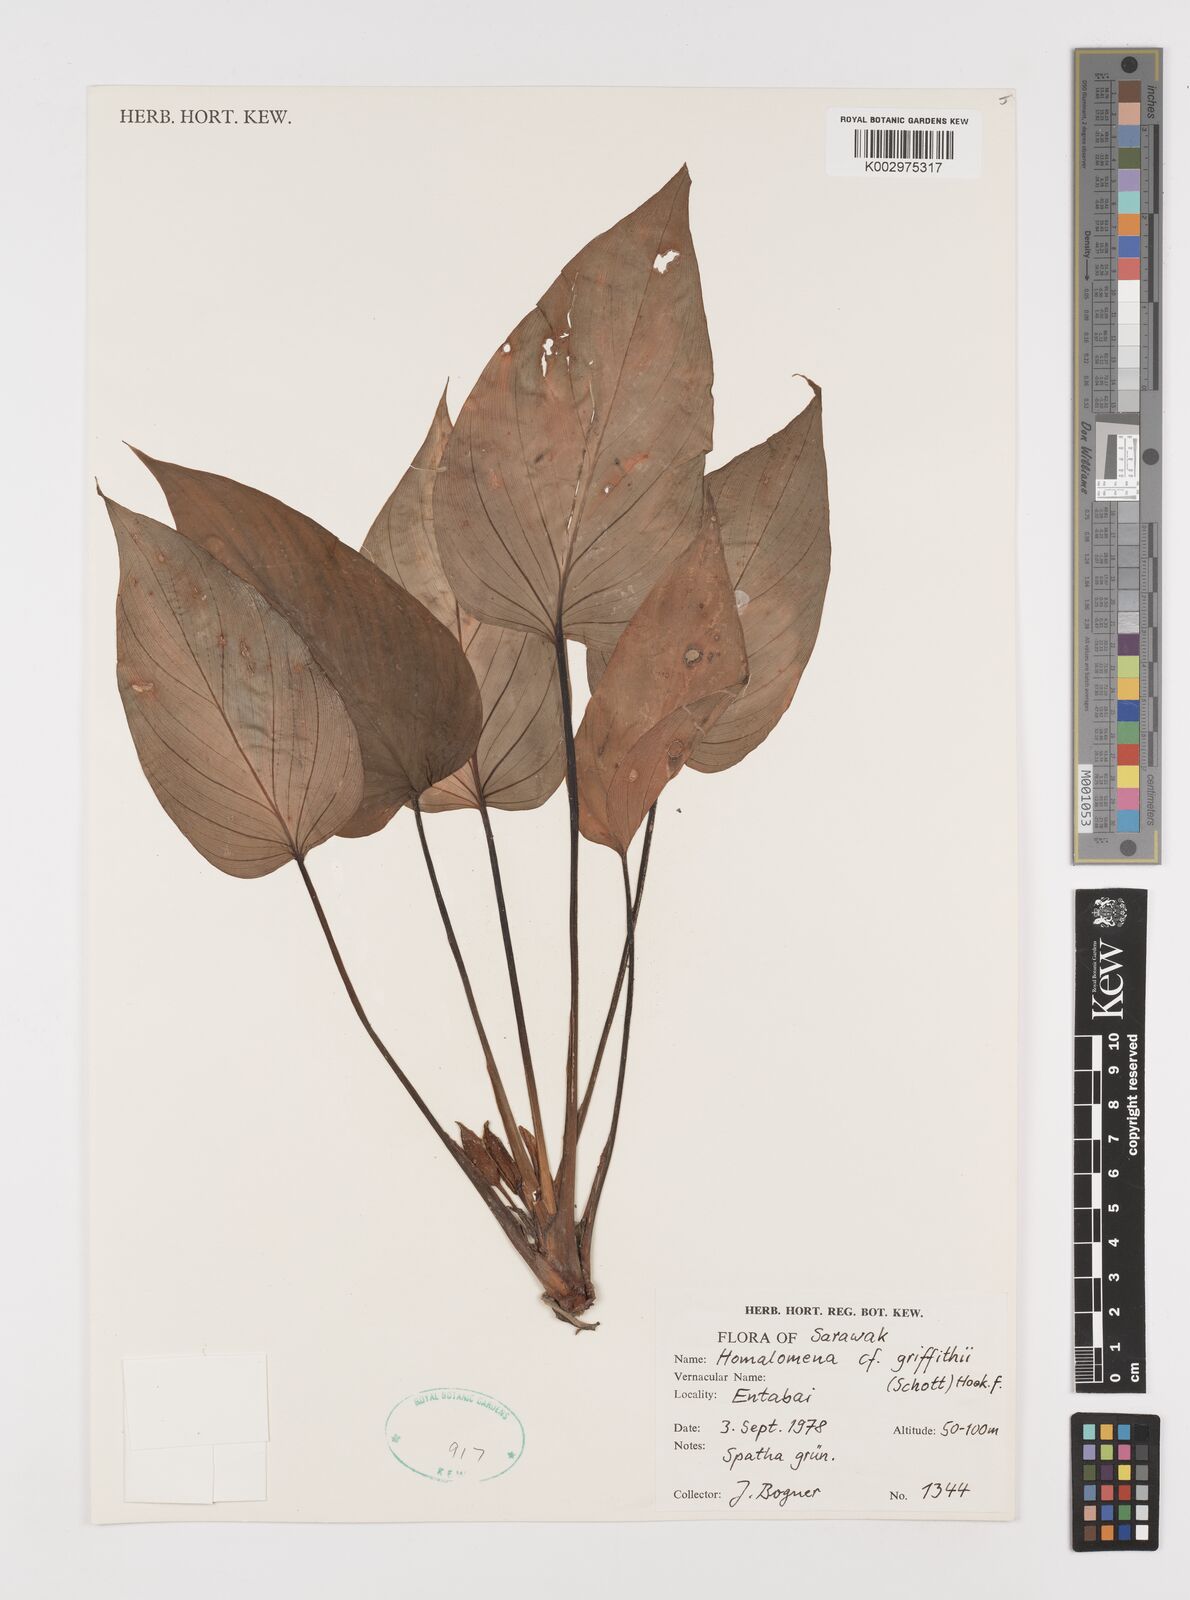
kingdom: Plantae
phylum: Tracheophyta
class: Liliopsida
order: Alismatales
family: Araceae
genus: Homalomena
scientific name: Homalomena griffithii
